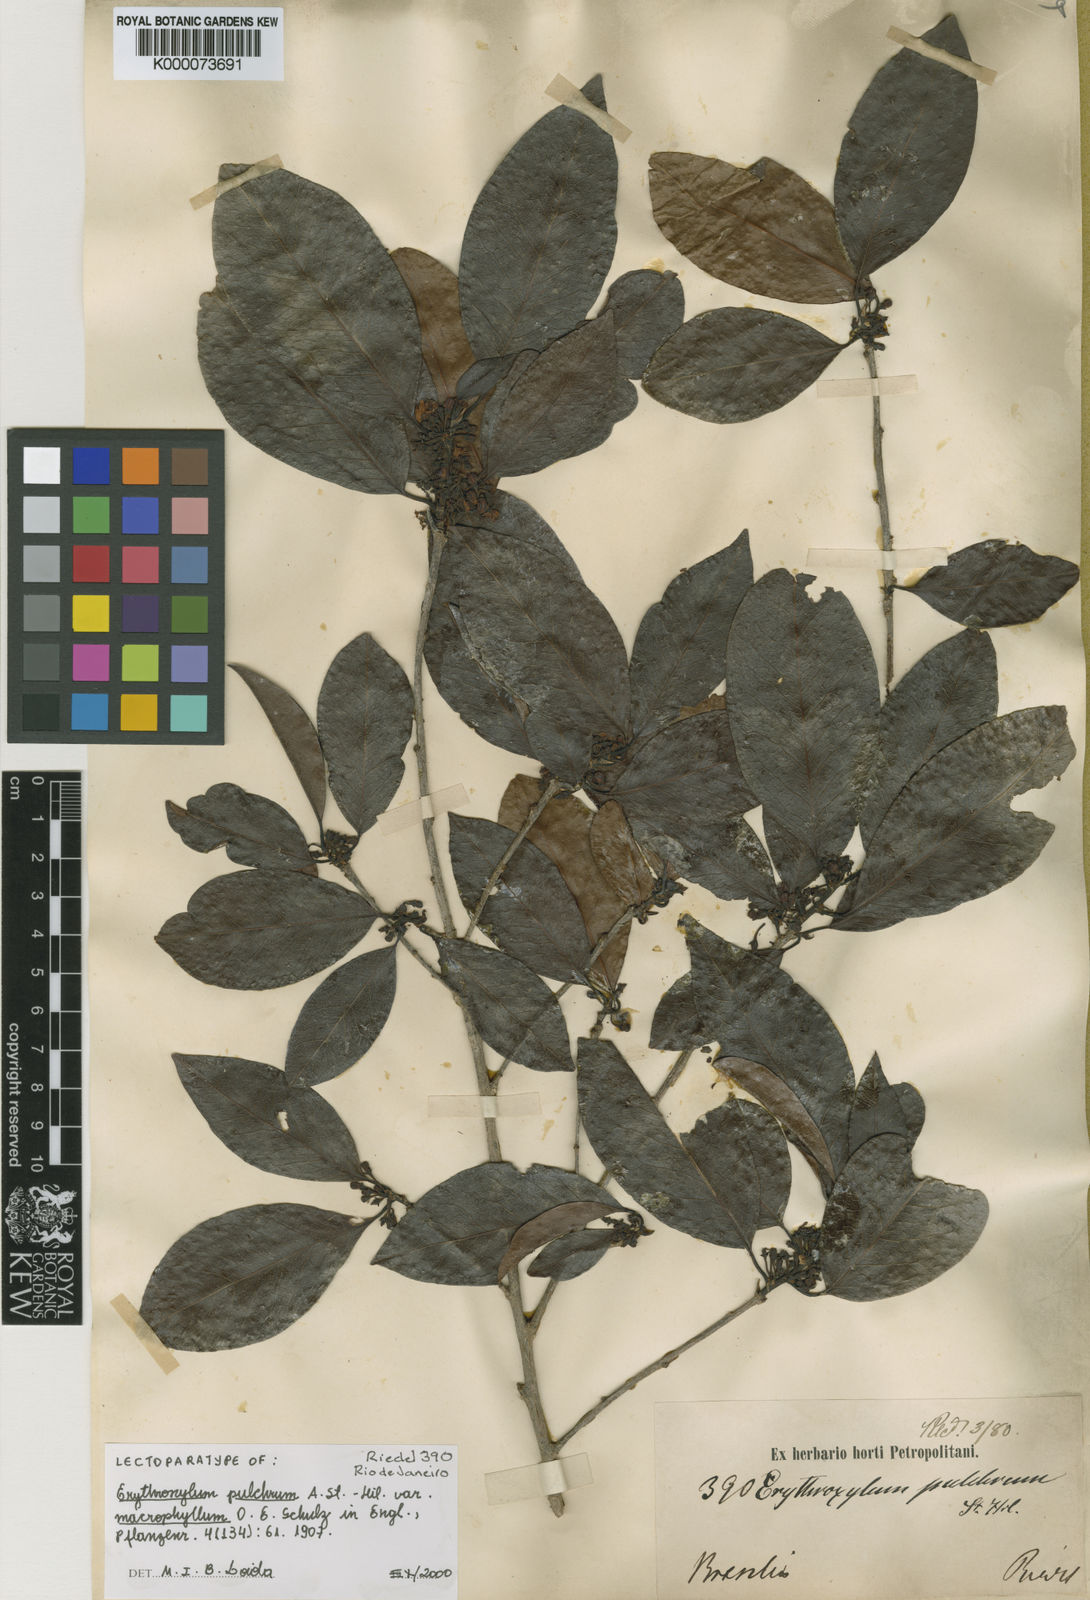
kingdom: Plantae
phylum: Tracheophyta
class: Magnoliopsida
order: Malpighiales
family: Erythroxylaceae
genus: Erythroxylum
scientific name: Erythroxylum pulchrum
